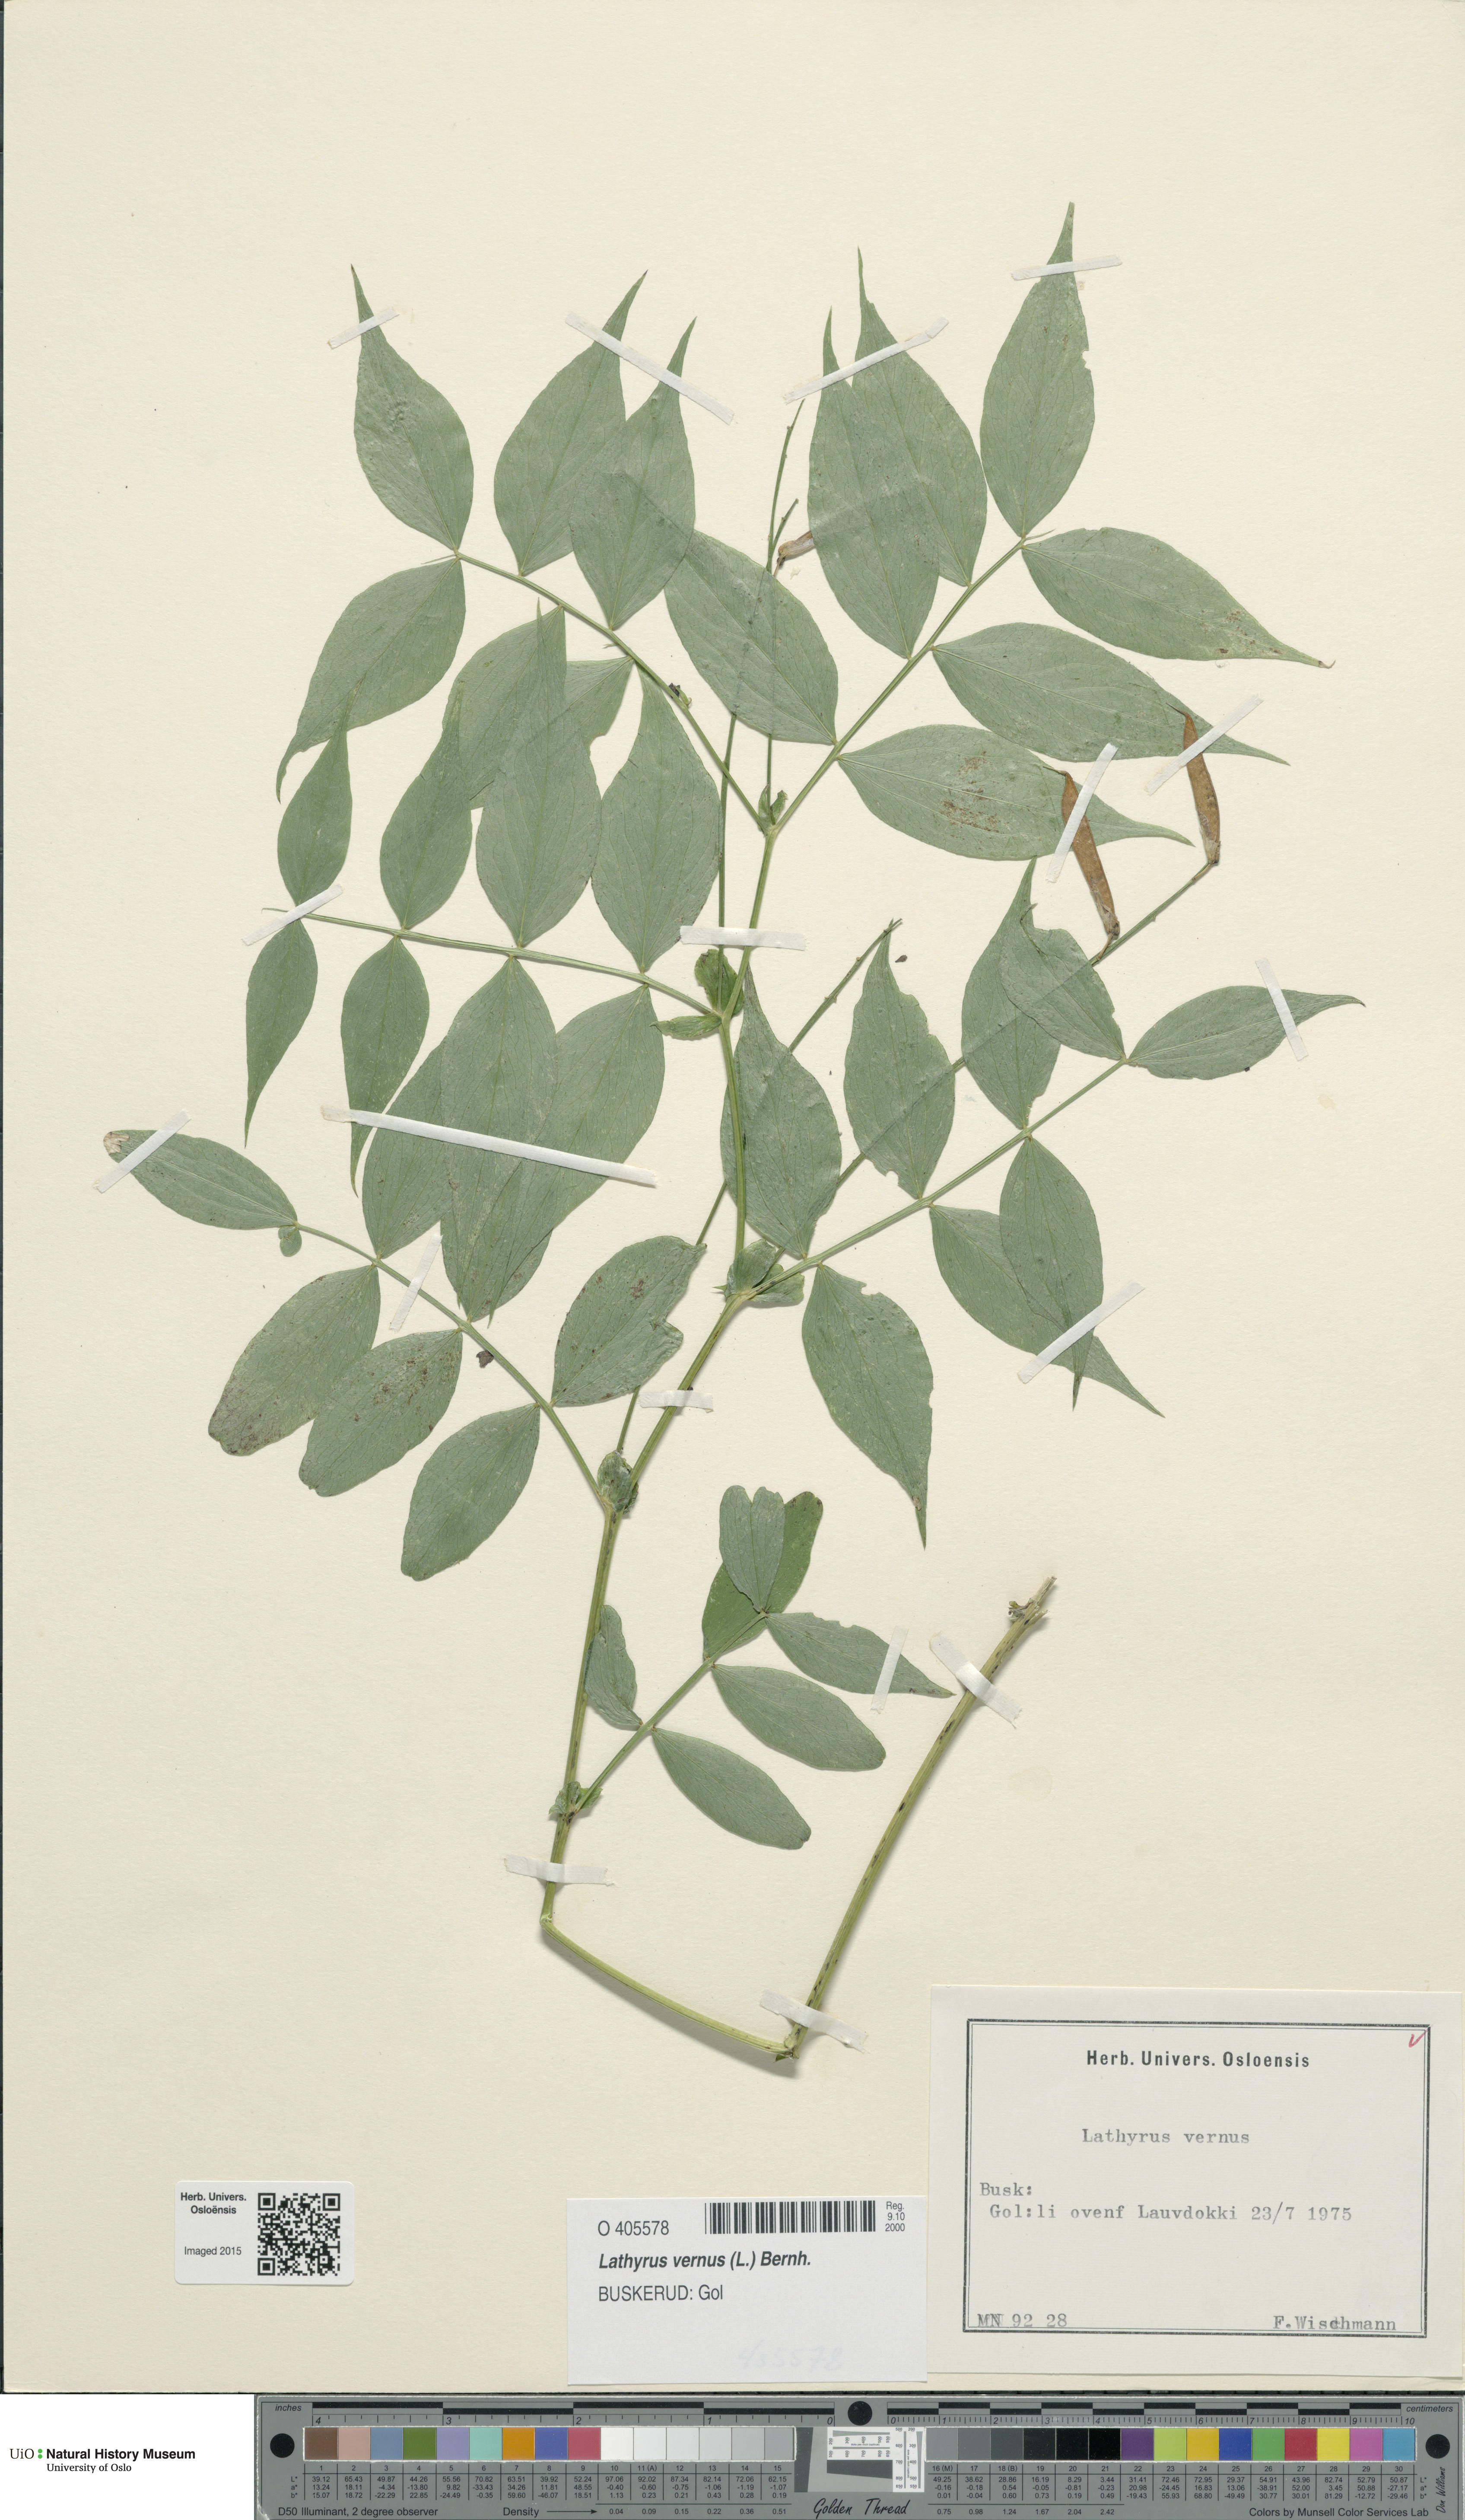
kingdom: Plantae
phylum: Tracheophyta
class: Magnoliopsida
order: Fabales
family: Fabaceae
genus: Lathyrus
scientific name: Lathyrus vernus
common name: Spring pea
